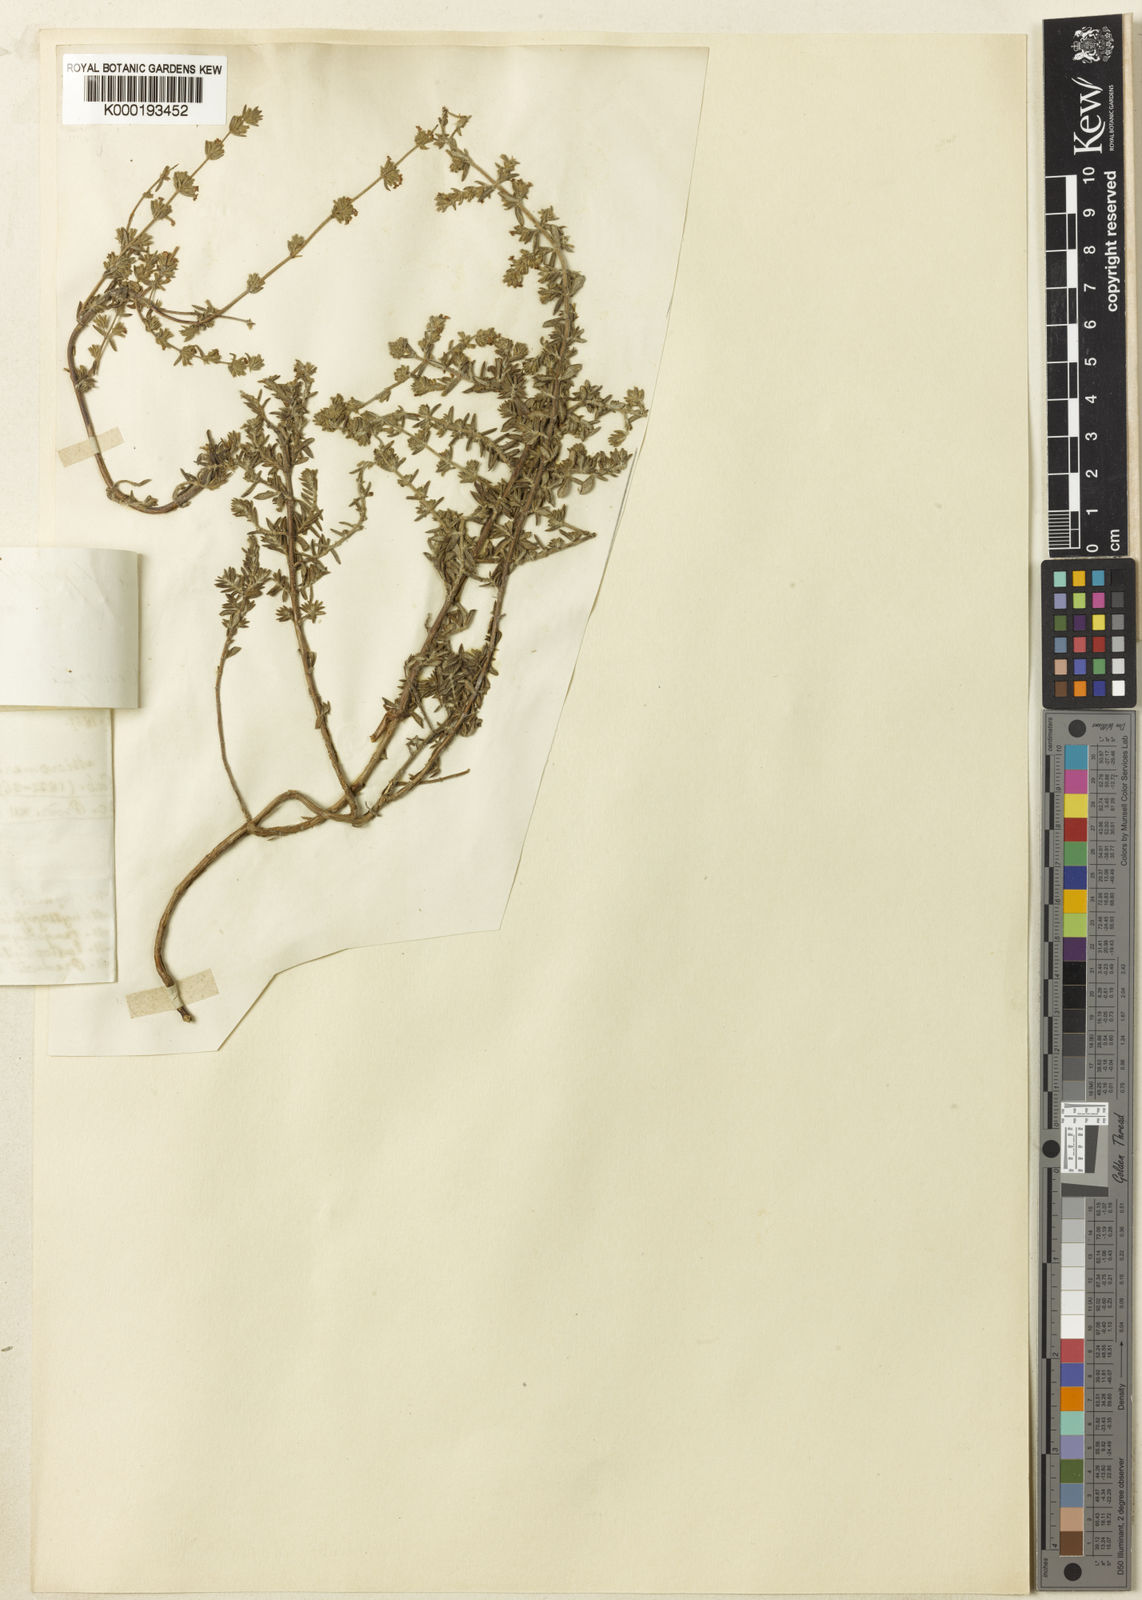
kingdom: Plantae
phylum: Tracheophyta
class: Magnoliopsida
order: Lamiales
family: Lamiaceae
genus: Micromeria
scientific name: Micromeria ericifolia
